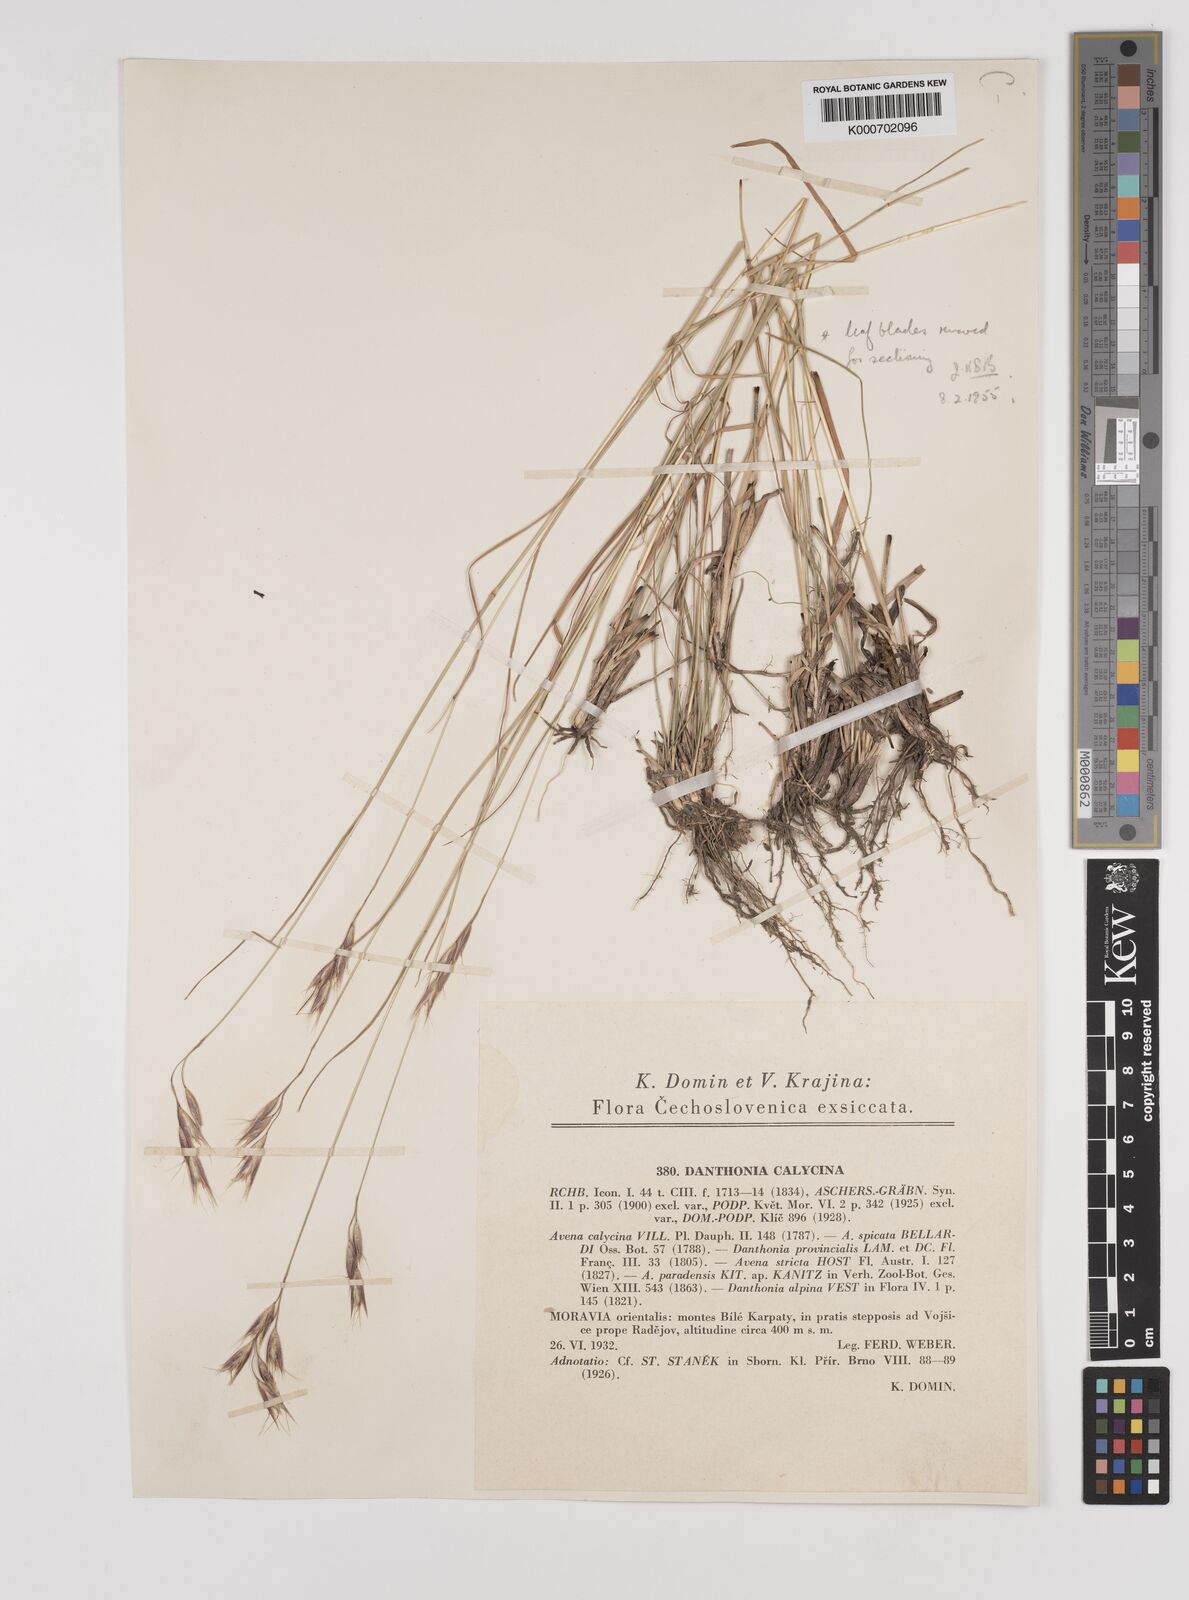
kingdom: Plantae
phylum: Tracheophyta
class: Liliopsida
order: Poales
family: Poaceae
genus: Danthonia
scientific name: Danthonia alpina
